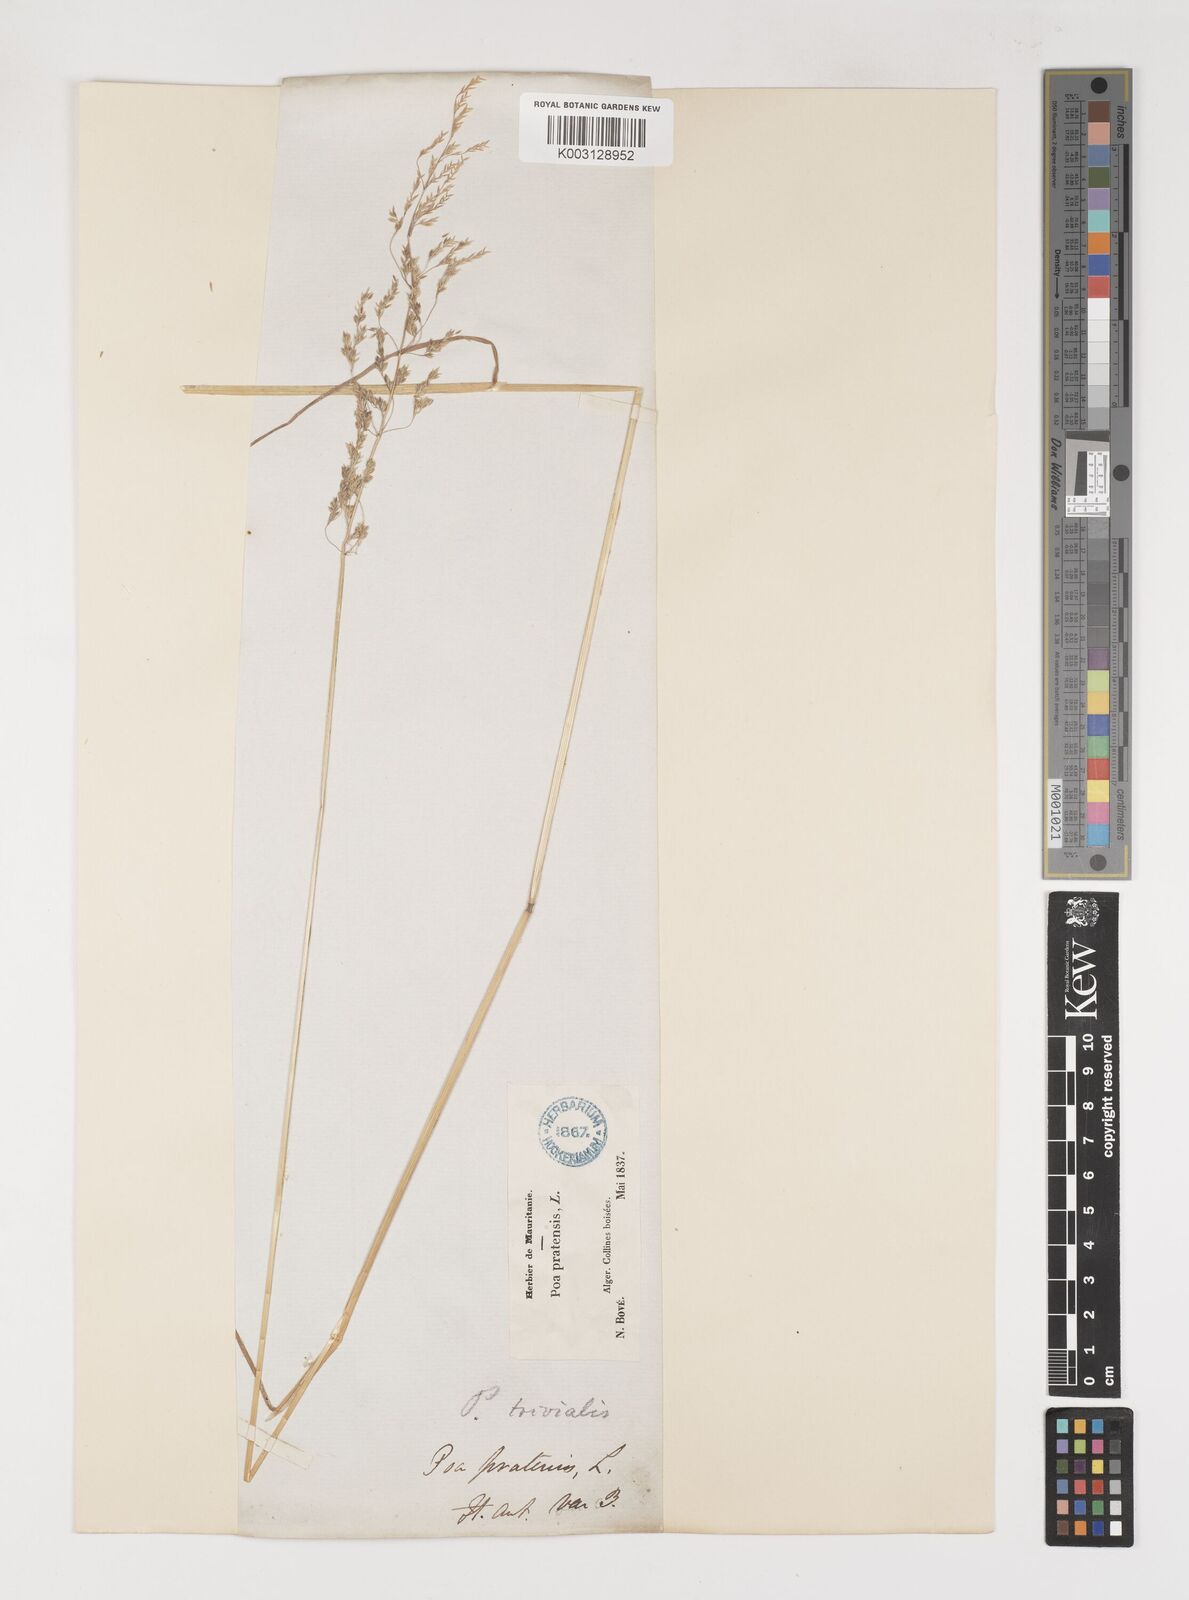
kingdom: Plantae
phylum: Tracheophyta
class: Liliopsida
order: Poales
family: Poaceae
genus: Poa
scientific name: Poa trivialis
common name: Rough bluegrass
